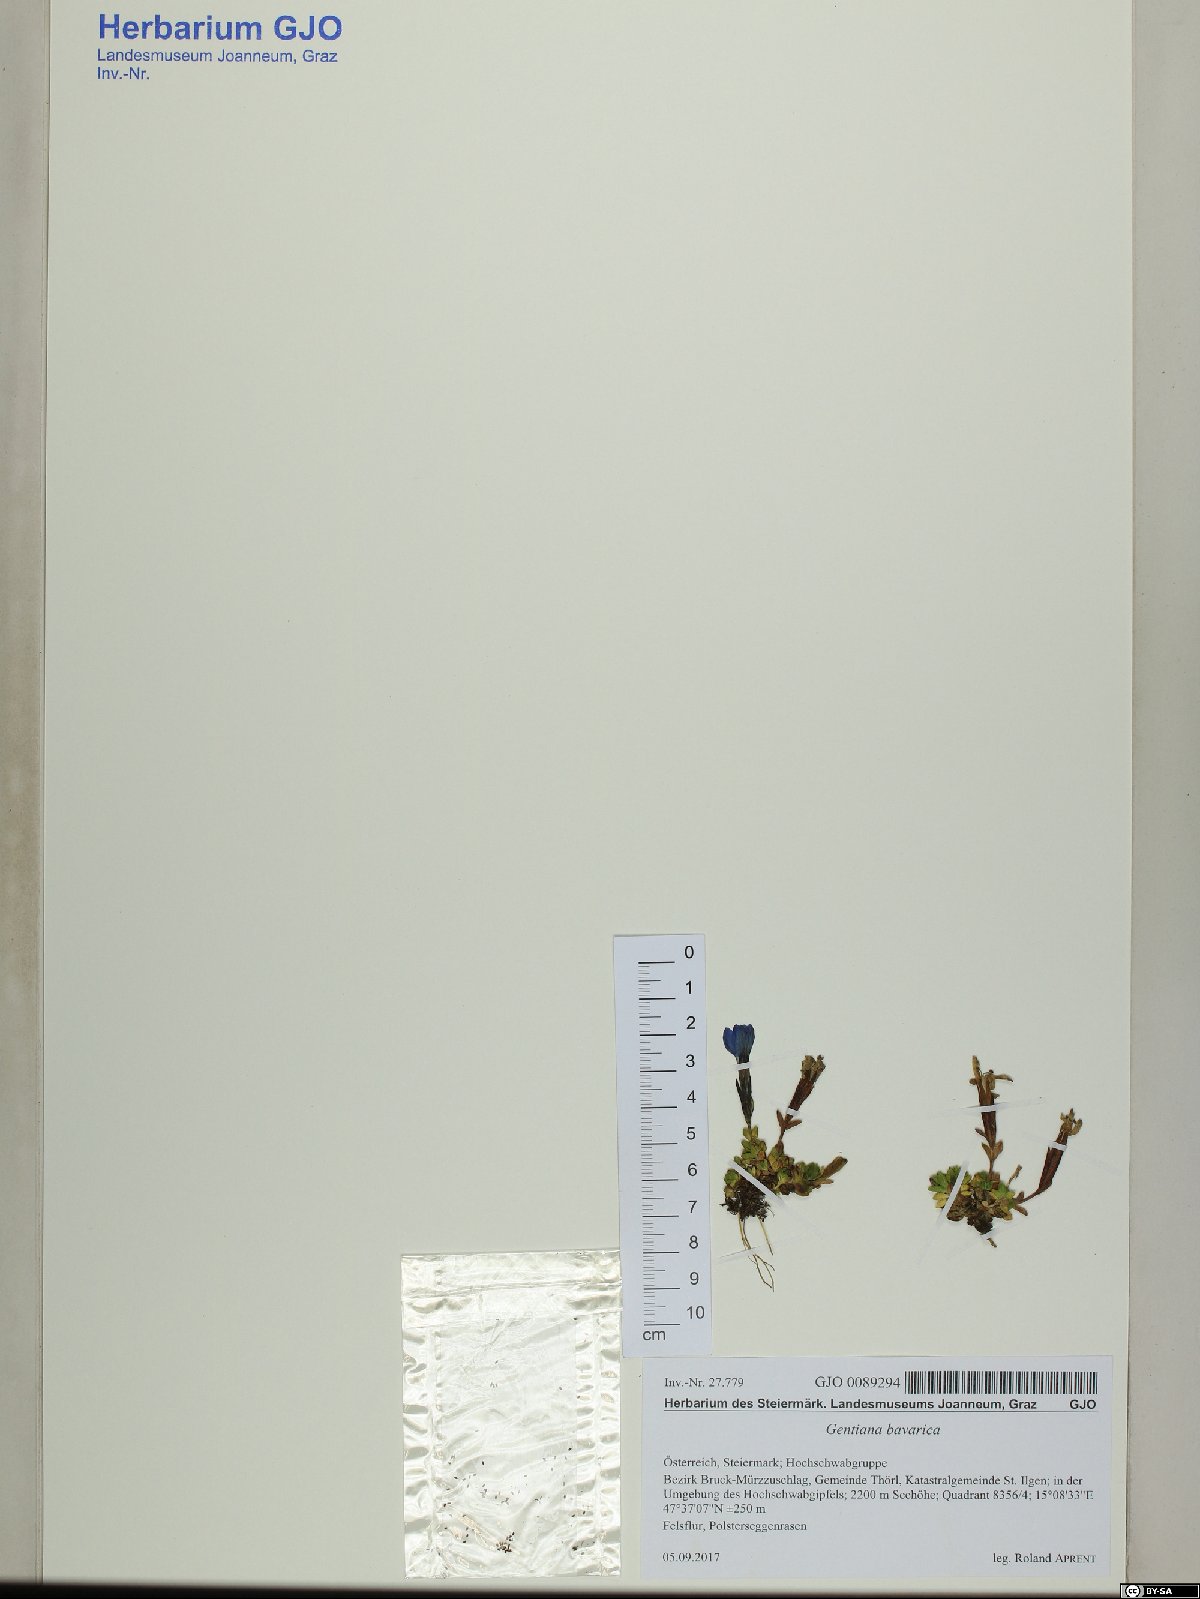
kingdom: Plantae
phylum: Tracheophyta
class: Magnoliopsida
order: Gentianales
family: Gentianaceae
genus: Gentiana
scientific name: Gentiana bavarica
